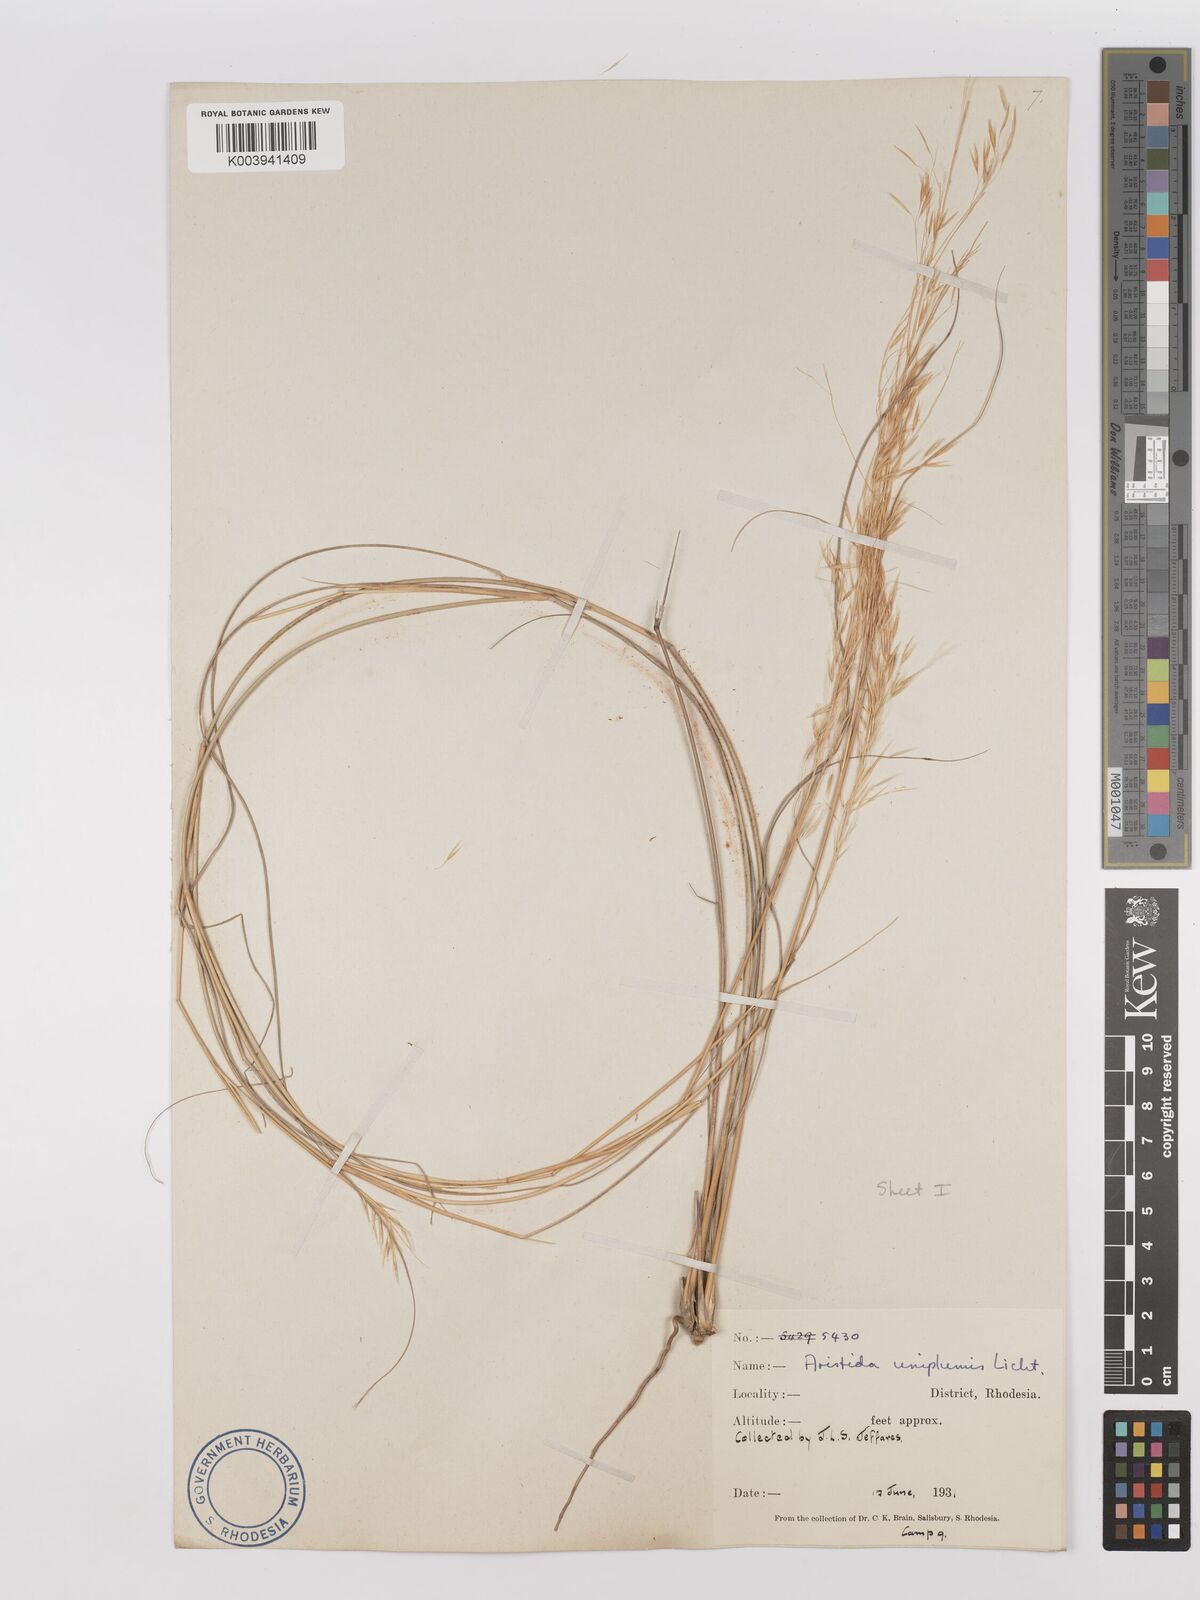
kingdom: Plantae
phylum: Tracheophyta
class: Liliopsida
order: Poales
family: Poaceae
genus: Stipagrostis
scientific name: Stipagrostis uniplumis
